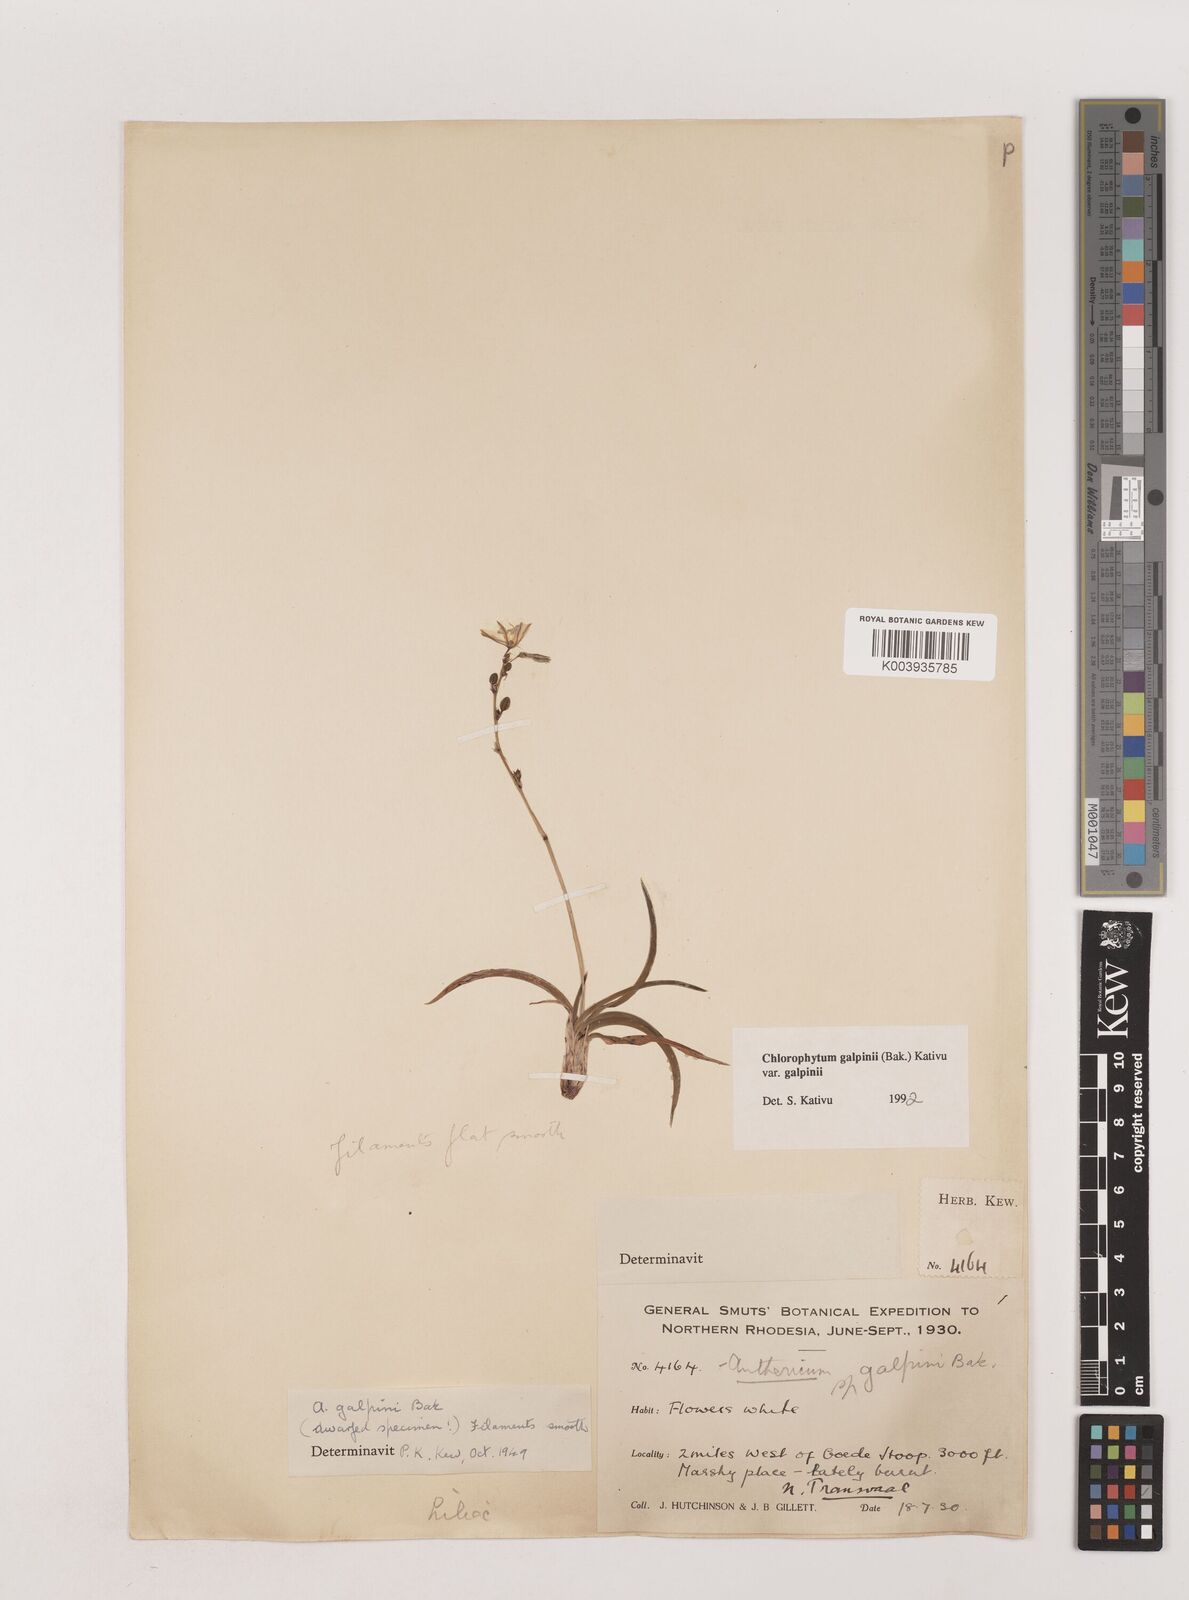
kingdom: Plantae
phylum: Tracheophyta
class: Liliopsida
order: Asparagales
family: Asparagaceae
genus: Chlorophytum
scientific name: Chlorophytum galpinii
